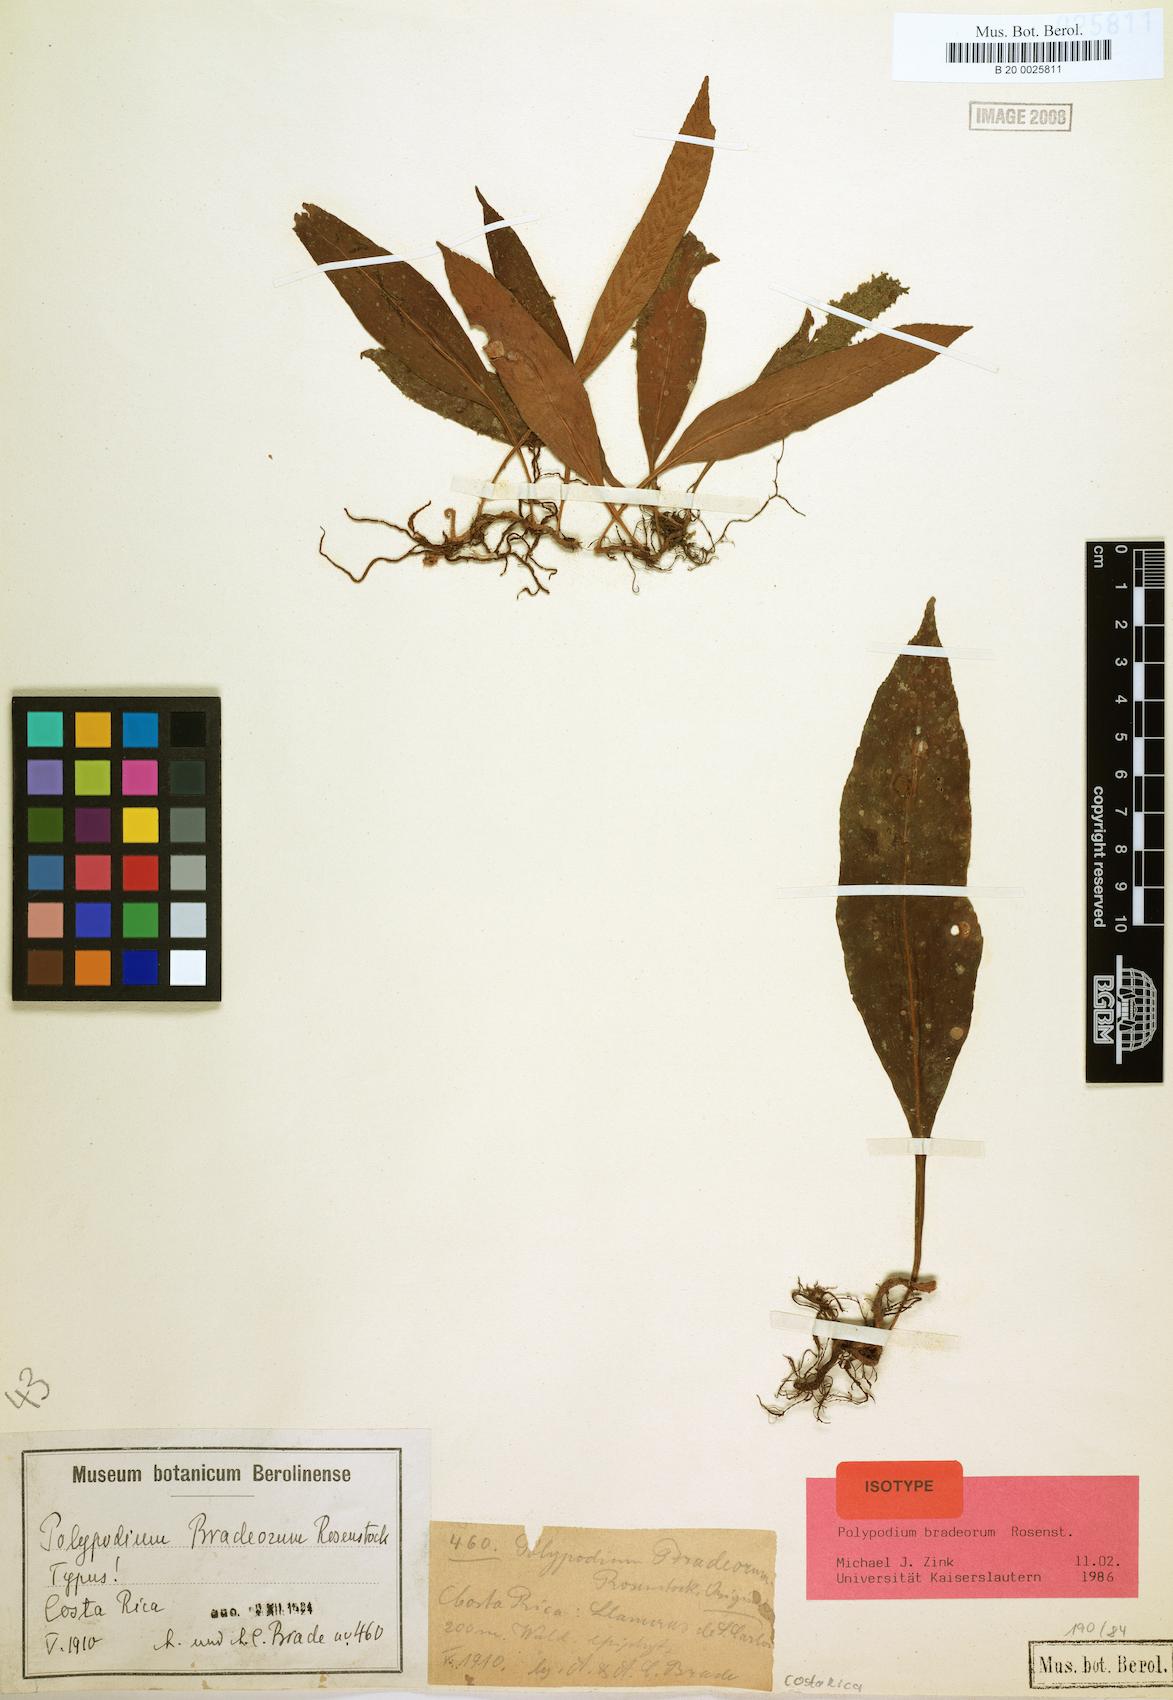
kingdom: Plantae
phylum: Tracheophyta
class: Polypodiopsida
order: Polypodiales
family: Polypodiaceae
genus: Pleopeltis
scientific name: Pleopeltis bradeorum
